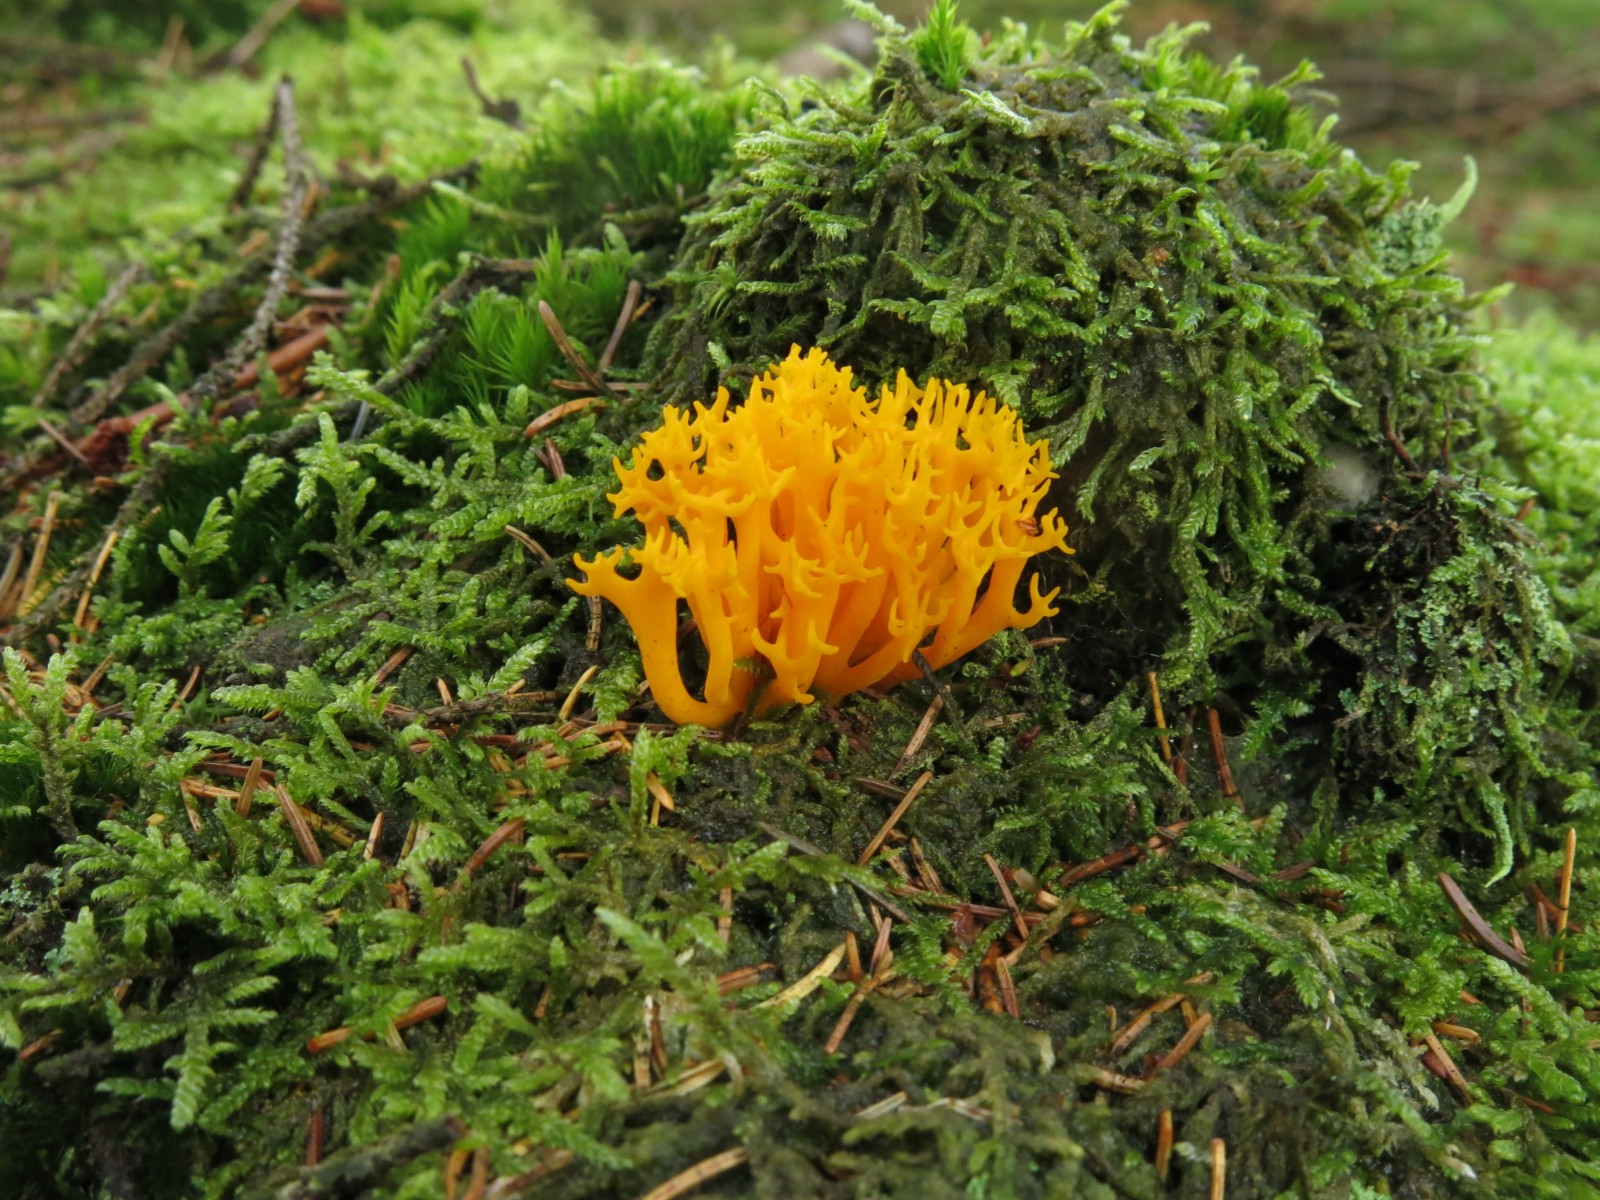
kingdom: Fungi
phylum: Basidiomycota
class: Dacrymycetes
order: Dacrymycetales
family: Dacrymycetaceae
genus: Calocera
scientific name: Calocera viscosa
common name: almindelig guldgaffel
